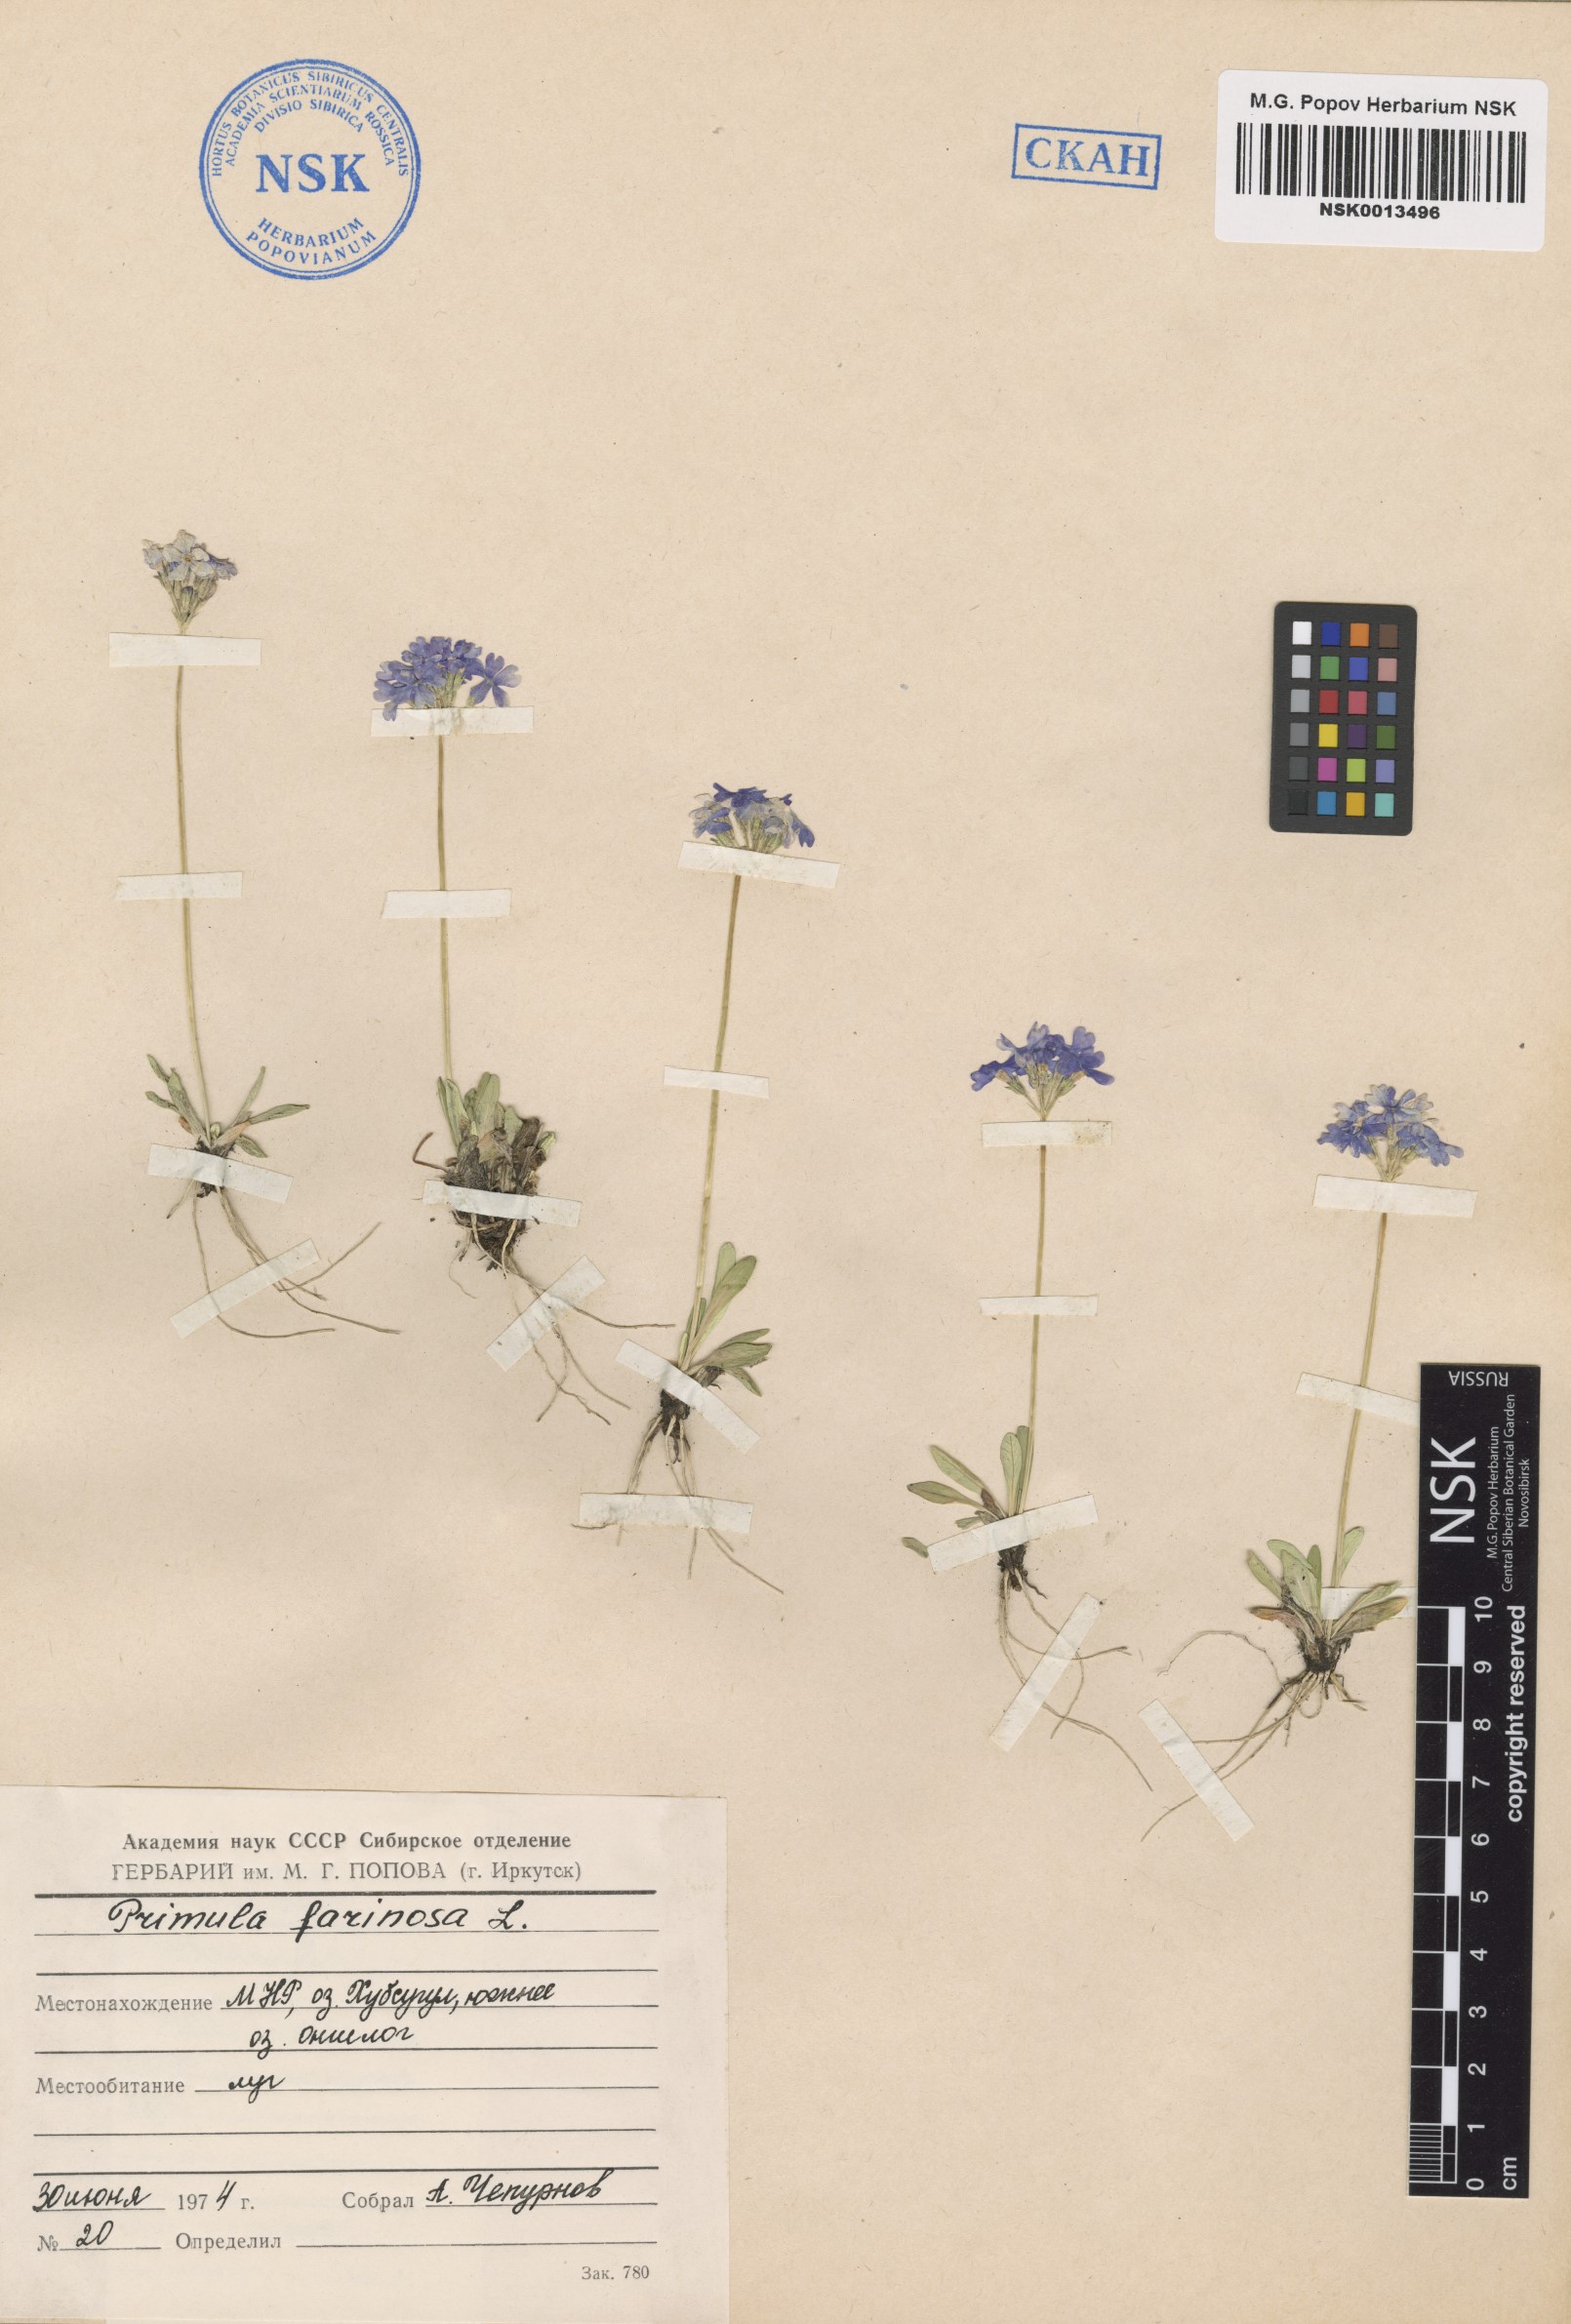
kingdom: Plantae
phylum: Tracheophyta
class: Magnoliopsida
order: Ericales
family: Primulaceae
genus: Primula
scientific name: Primula farinosa
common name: Bird's-eye primrose
